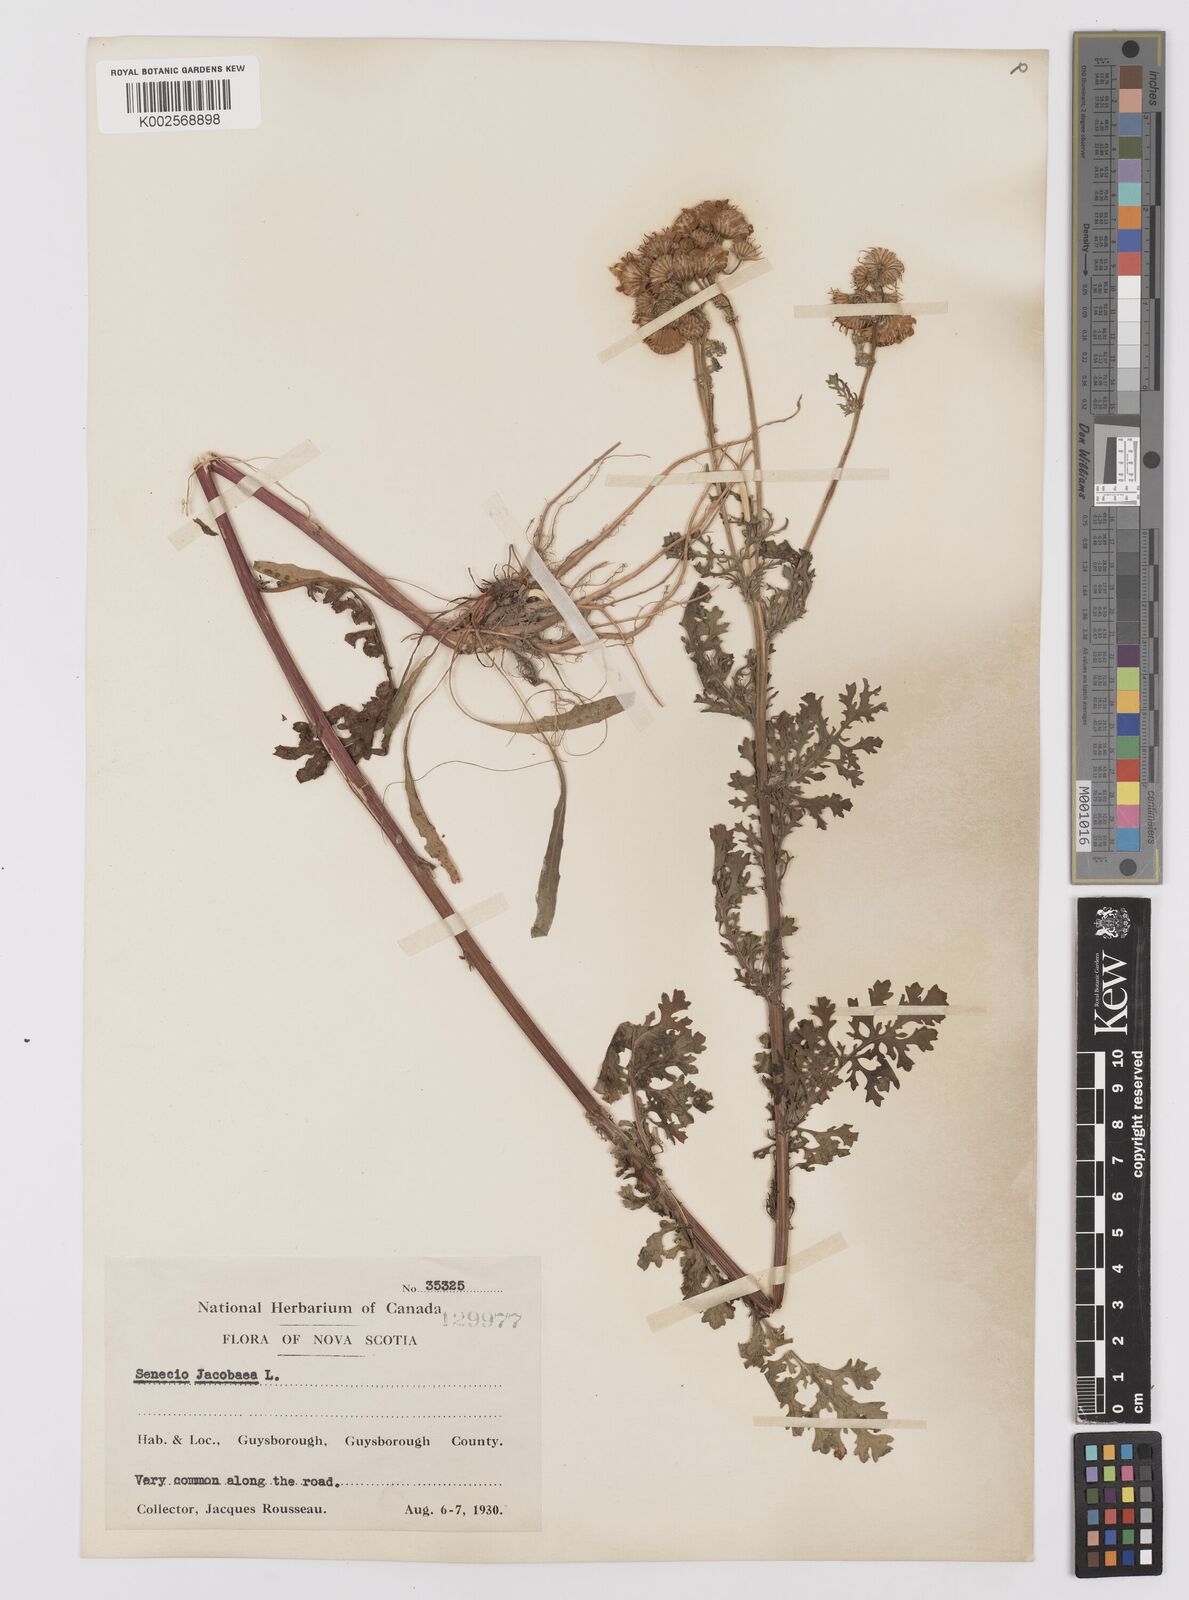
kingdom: Plantae
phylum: Tracheophyta
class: Magnoliopsida
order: Asterales
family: Asteraceae
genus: Jacobaea
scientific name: Jacobaea vulgaris
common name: Stinking willie
